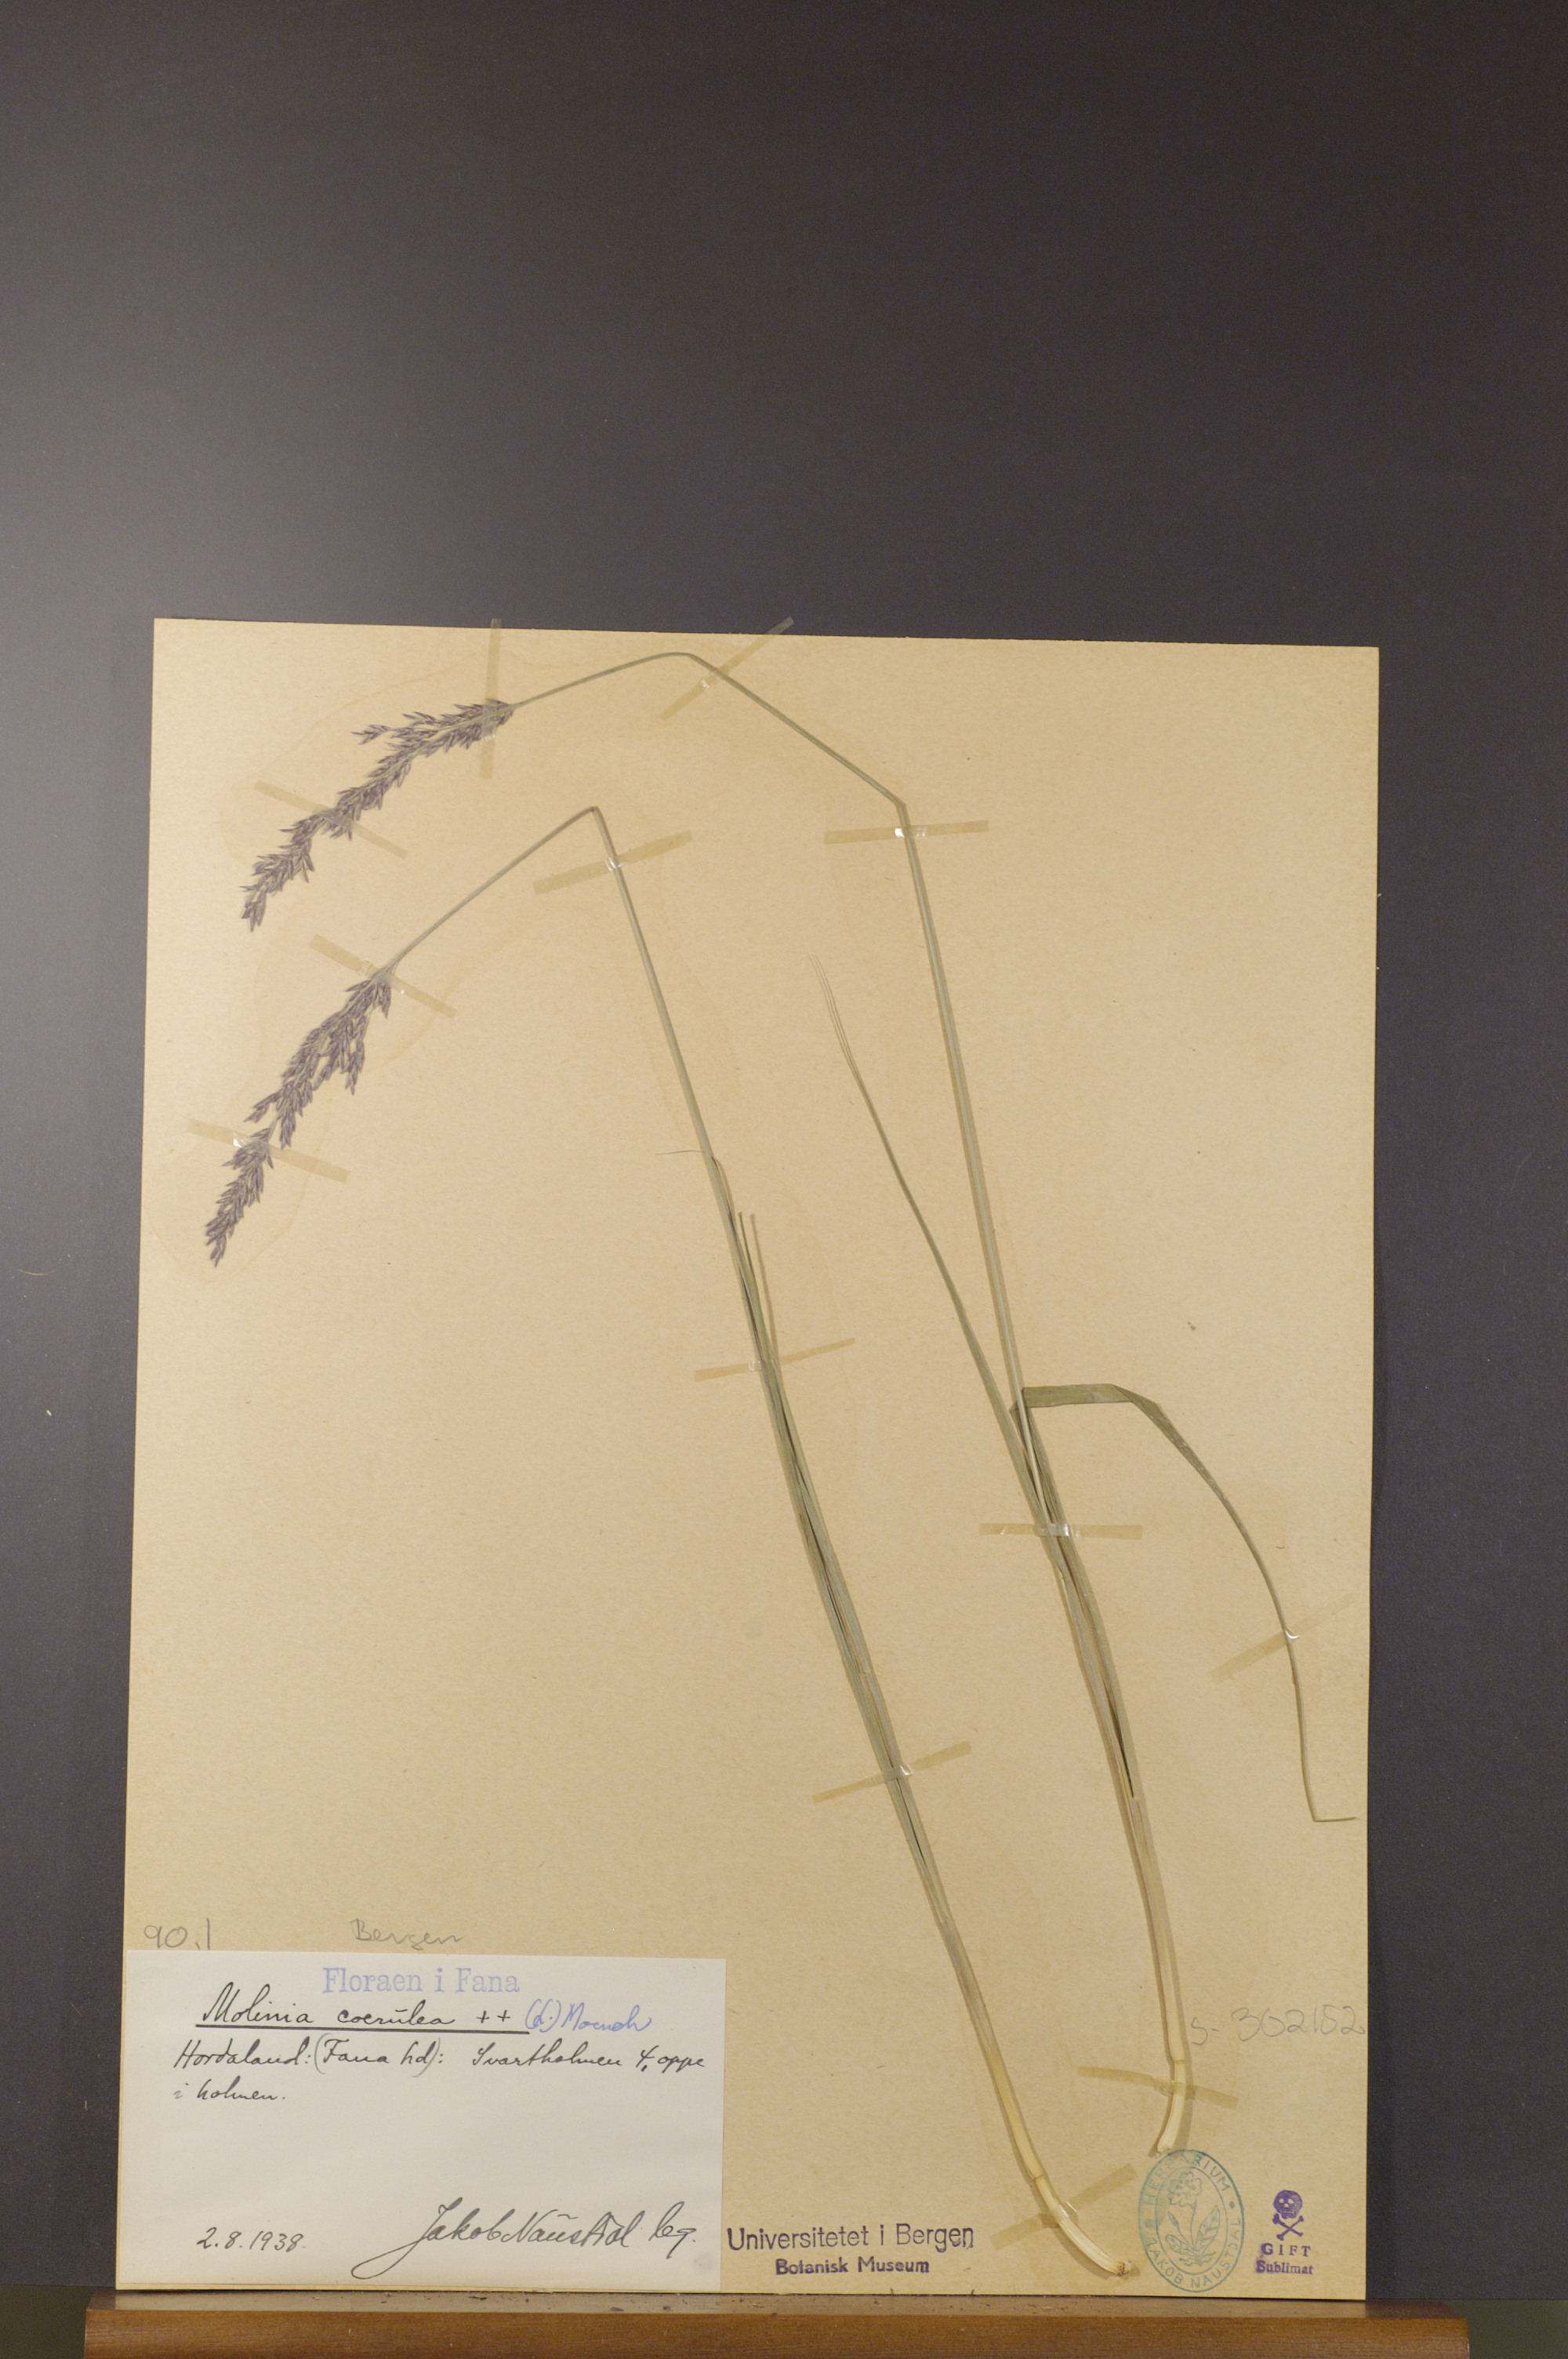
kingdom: Plantae
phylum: Tracheophyta
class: Liliopsida
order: Poales
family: Poaceae
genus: Molinia
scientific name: Molinia caerulea
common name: Purple moor-grass
